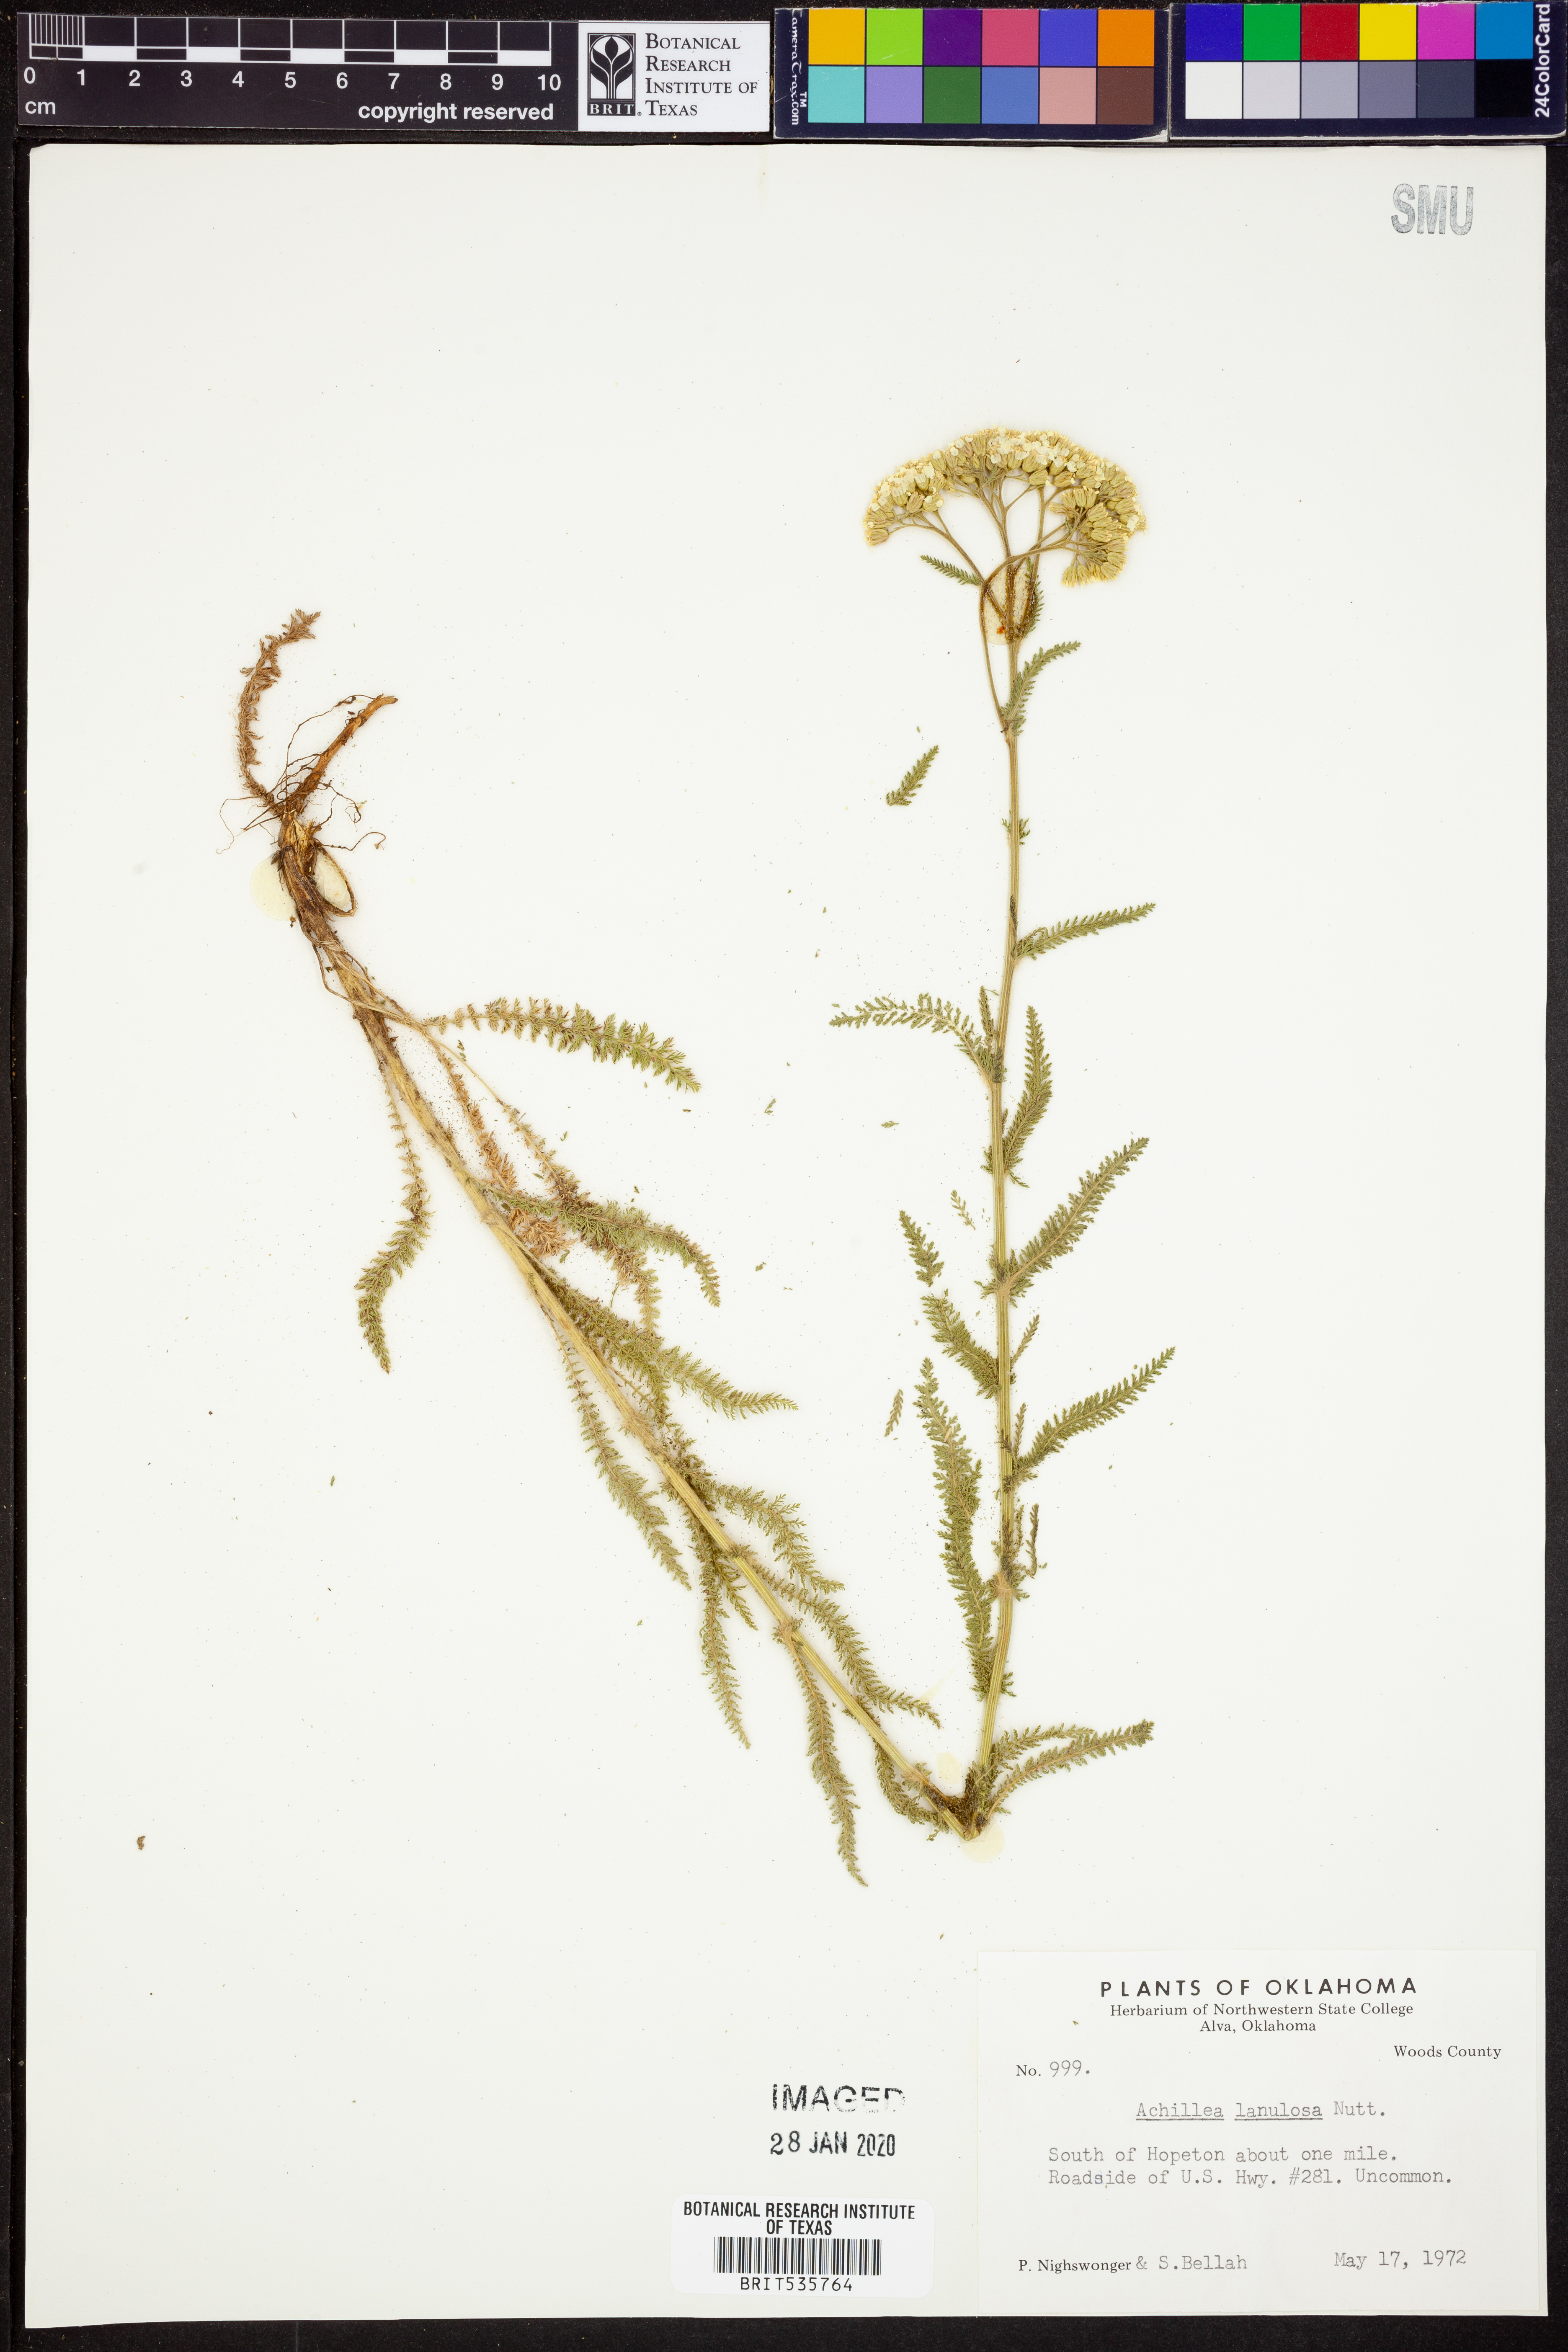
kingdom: Plantae
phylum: Tracheophyta
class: Magnoliopsida
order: Asterales
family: Asteraceae
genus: Achillea
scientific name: Achillea millefolium
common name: Yarrow
